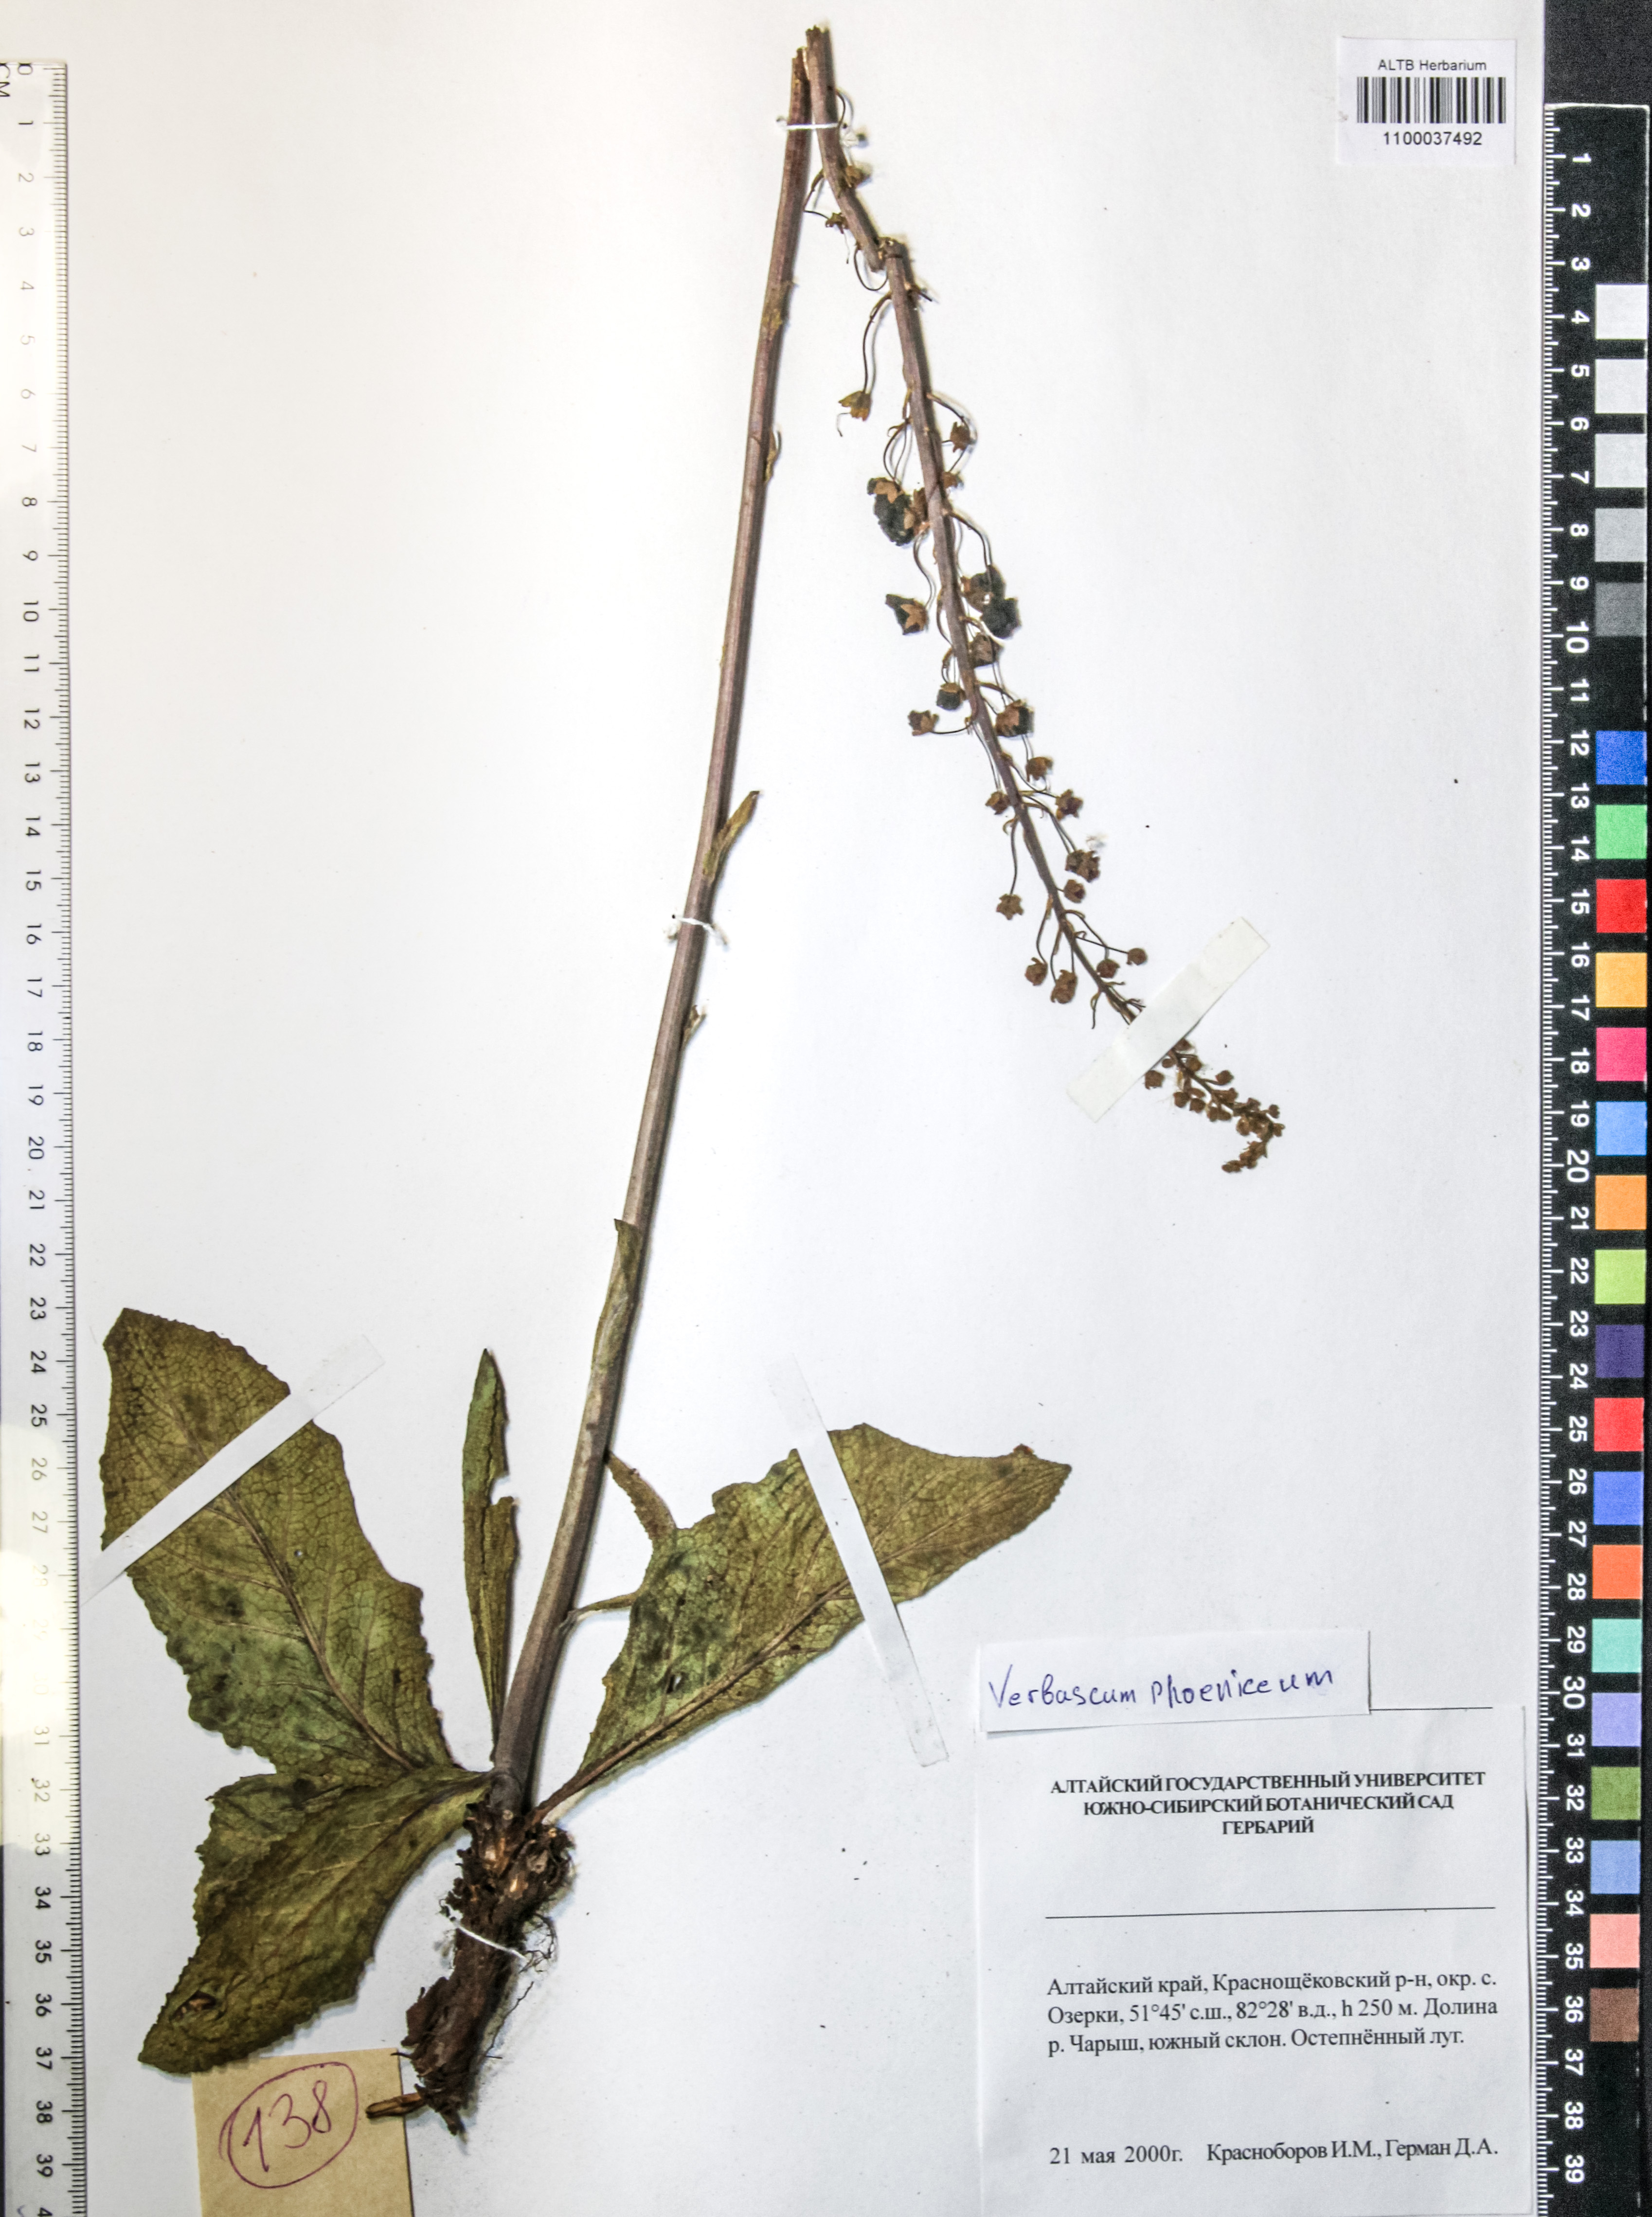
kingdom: Plantae
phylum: Tracheophyta
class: Magnoliopsida
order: Lamiales
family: Scrophulariaceae
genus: Verbascum
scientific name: Verbascum phoeniceum
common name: Purple mullein
